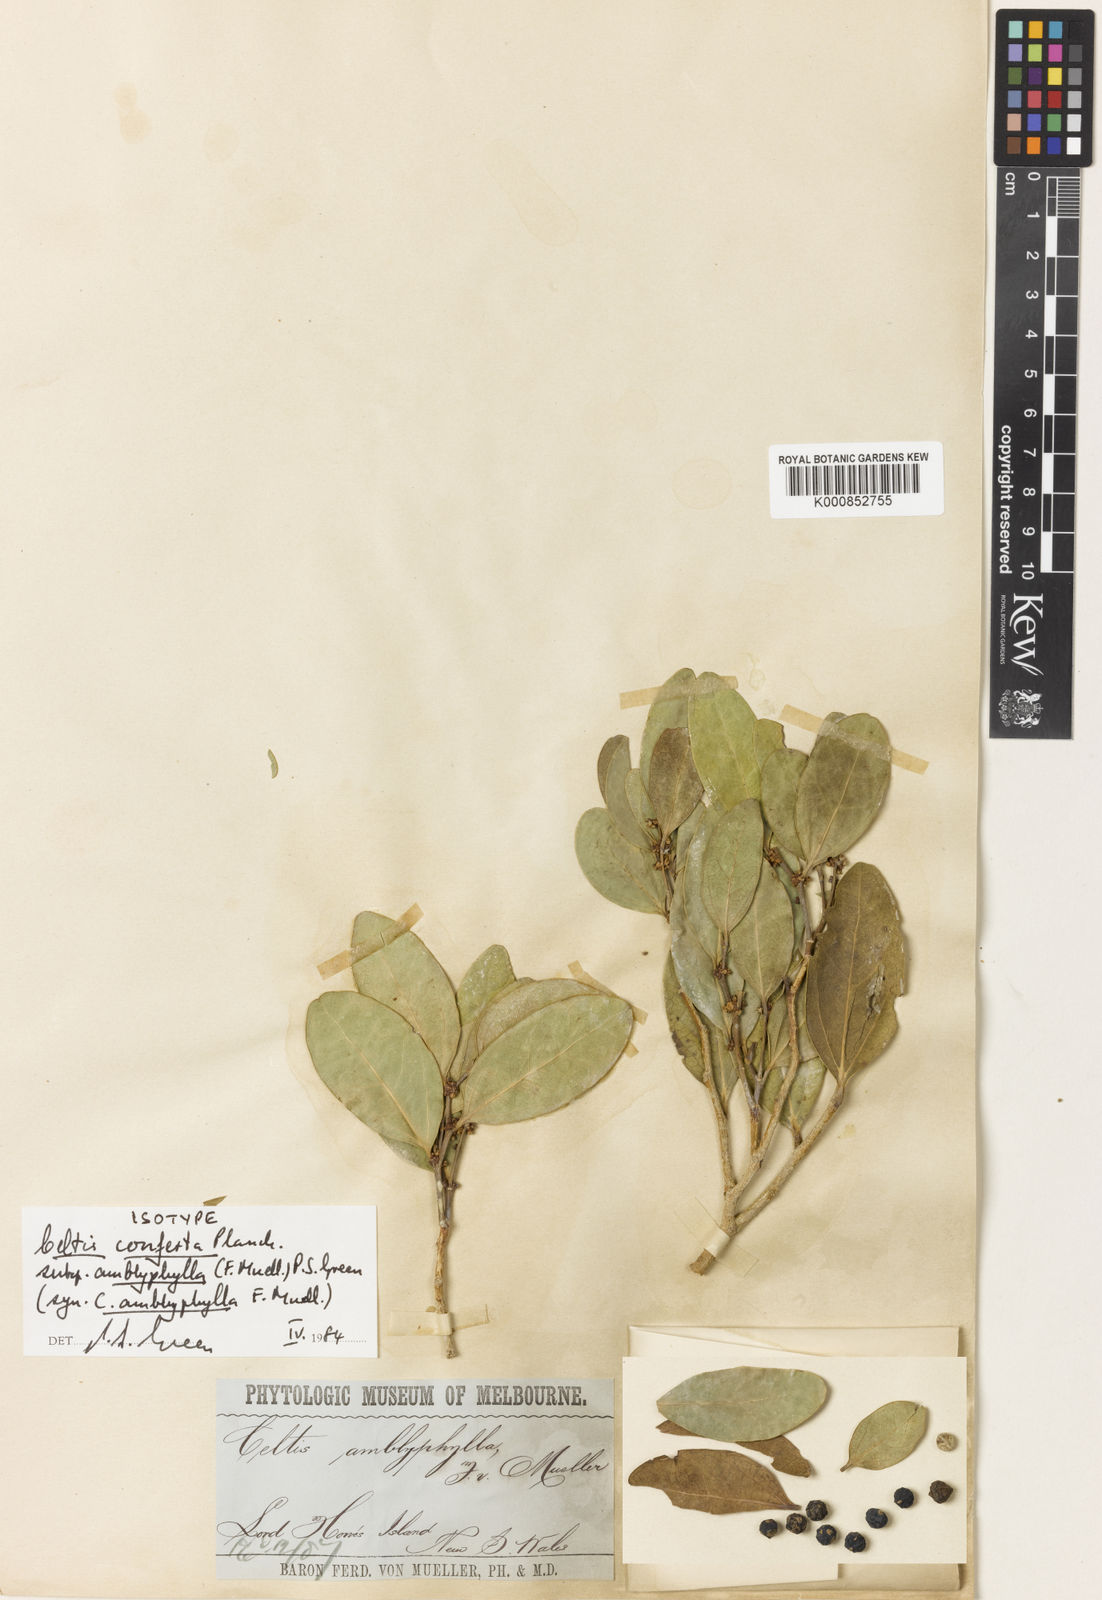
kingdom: Plantae
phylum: Tracheophyta
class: Magnoliopsida
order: Rosales
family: Cannabaceae
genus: Celtis
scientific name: Celtis conferta
